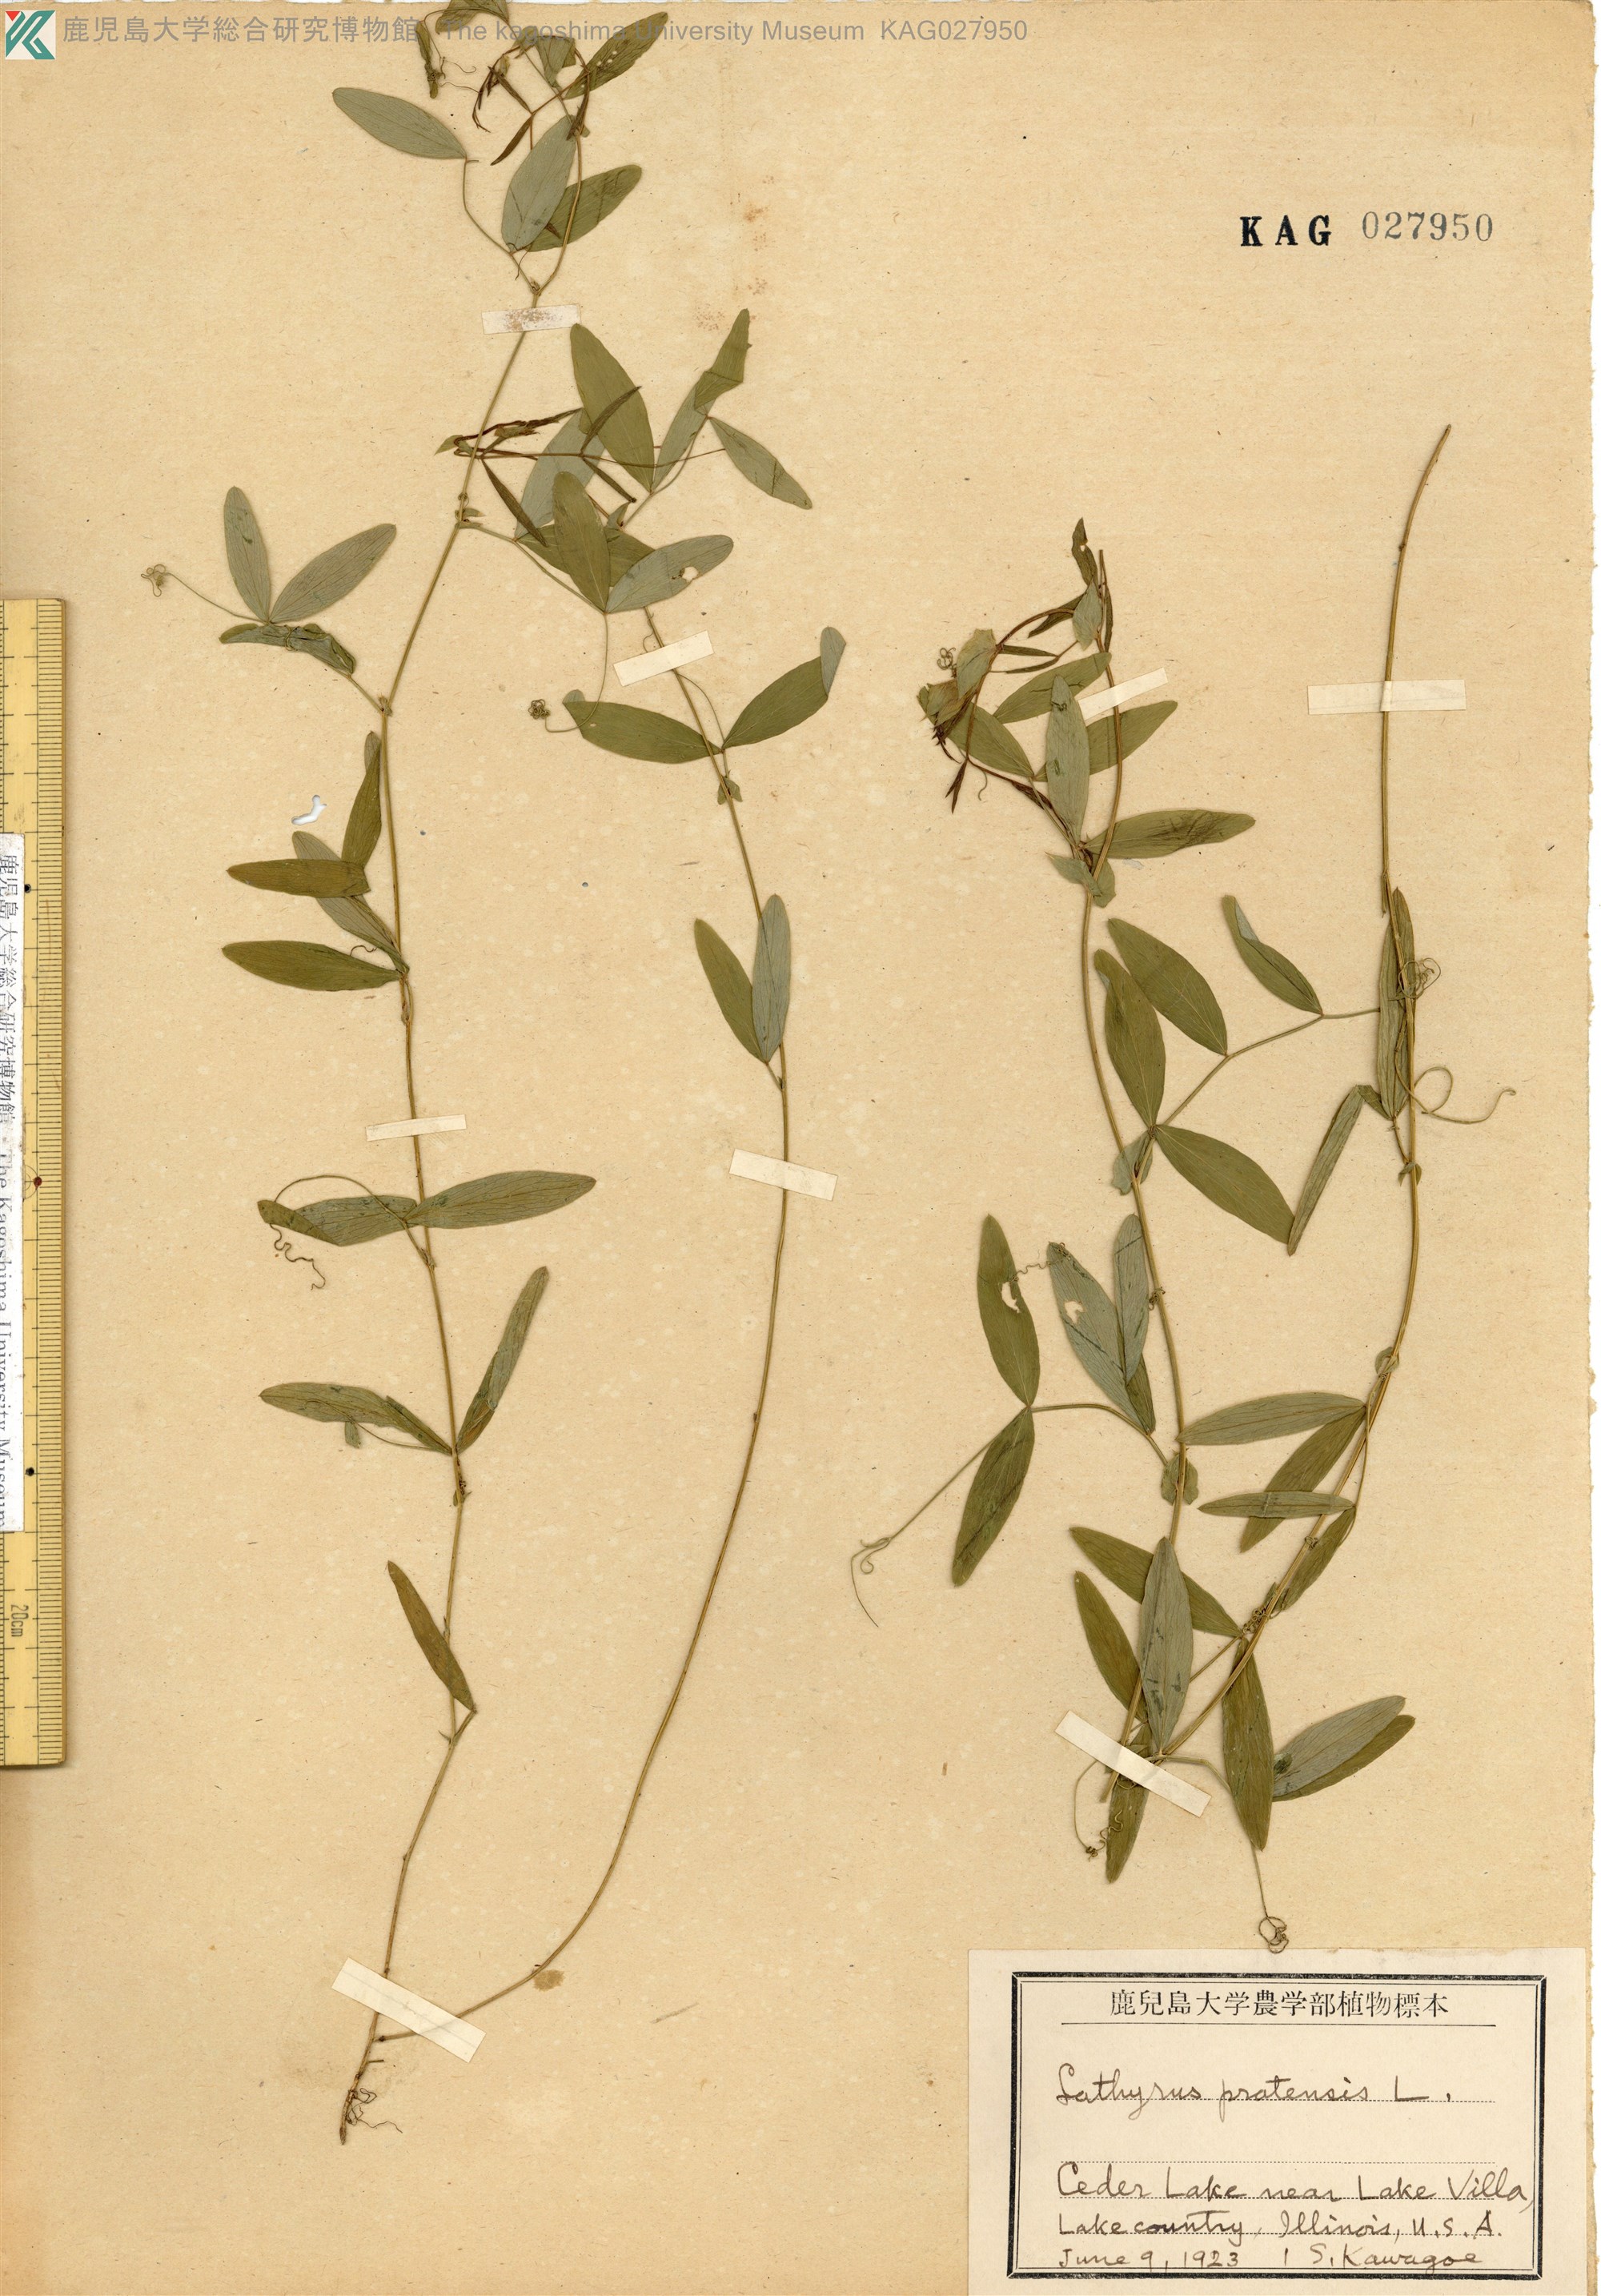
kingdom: Plantae
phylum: Tracheophyta
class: Magnoliopsida
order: Fabales
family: Fabaceae
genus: Lathyrus
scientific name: Lathyrus pratensis
